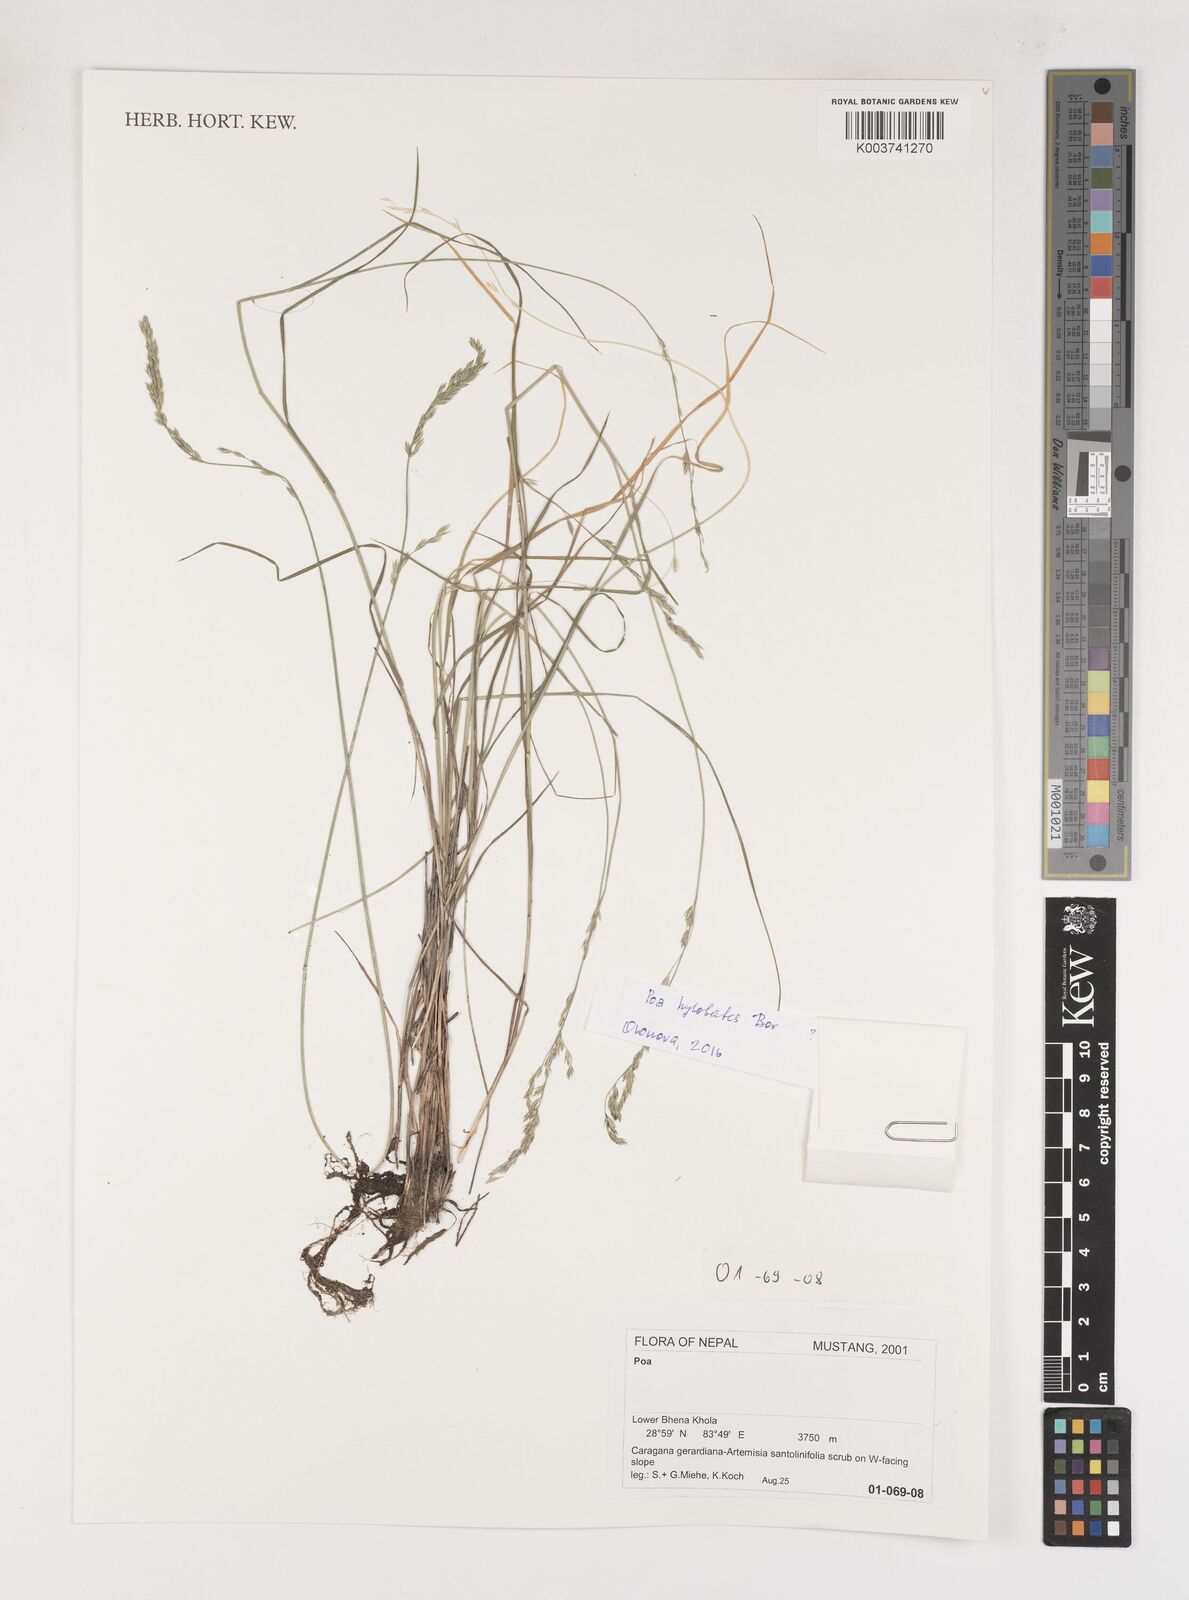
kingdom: Plantae
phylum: Tracheophyta
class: Liliopsida
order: Poales
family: Poaceae
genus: Poa
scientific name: Poa
